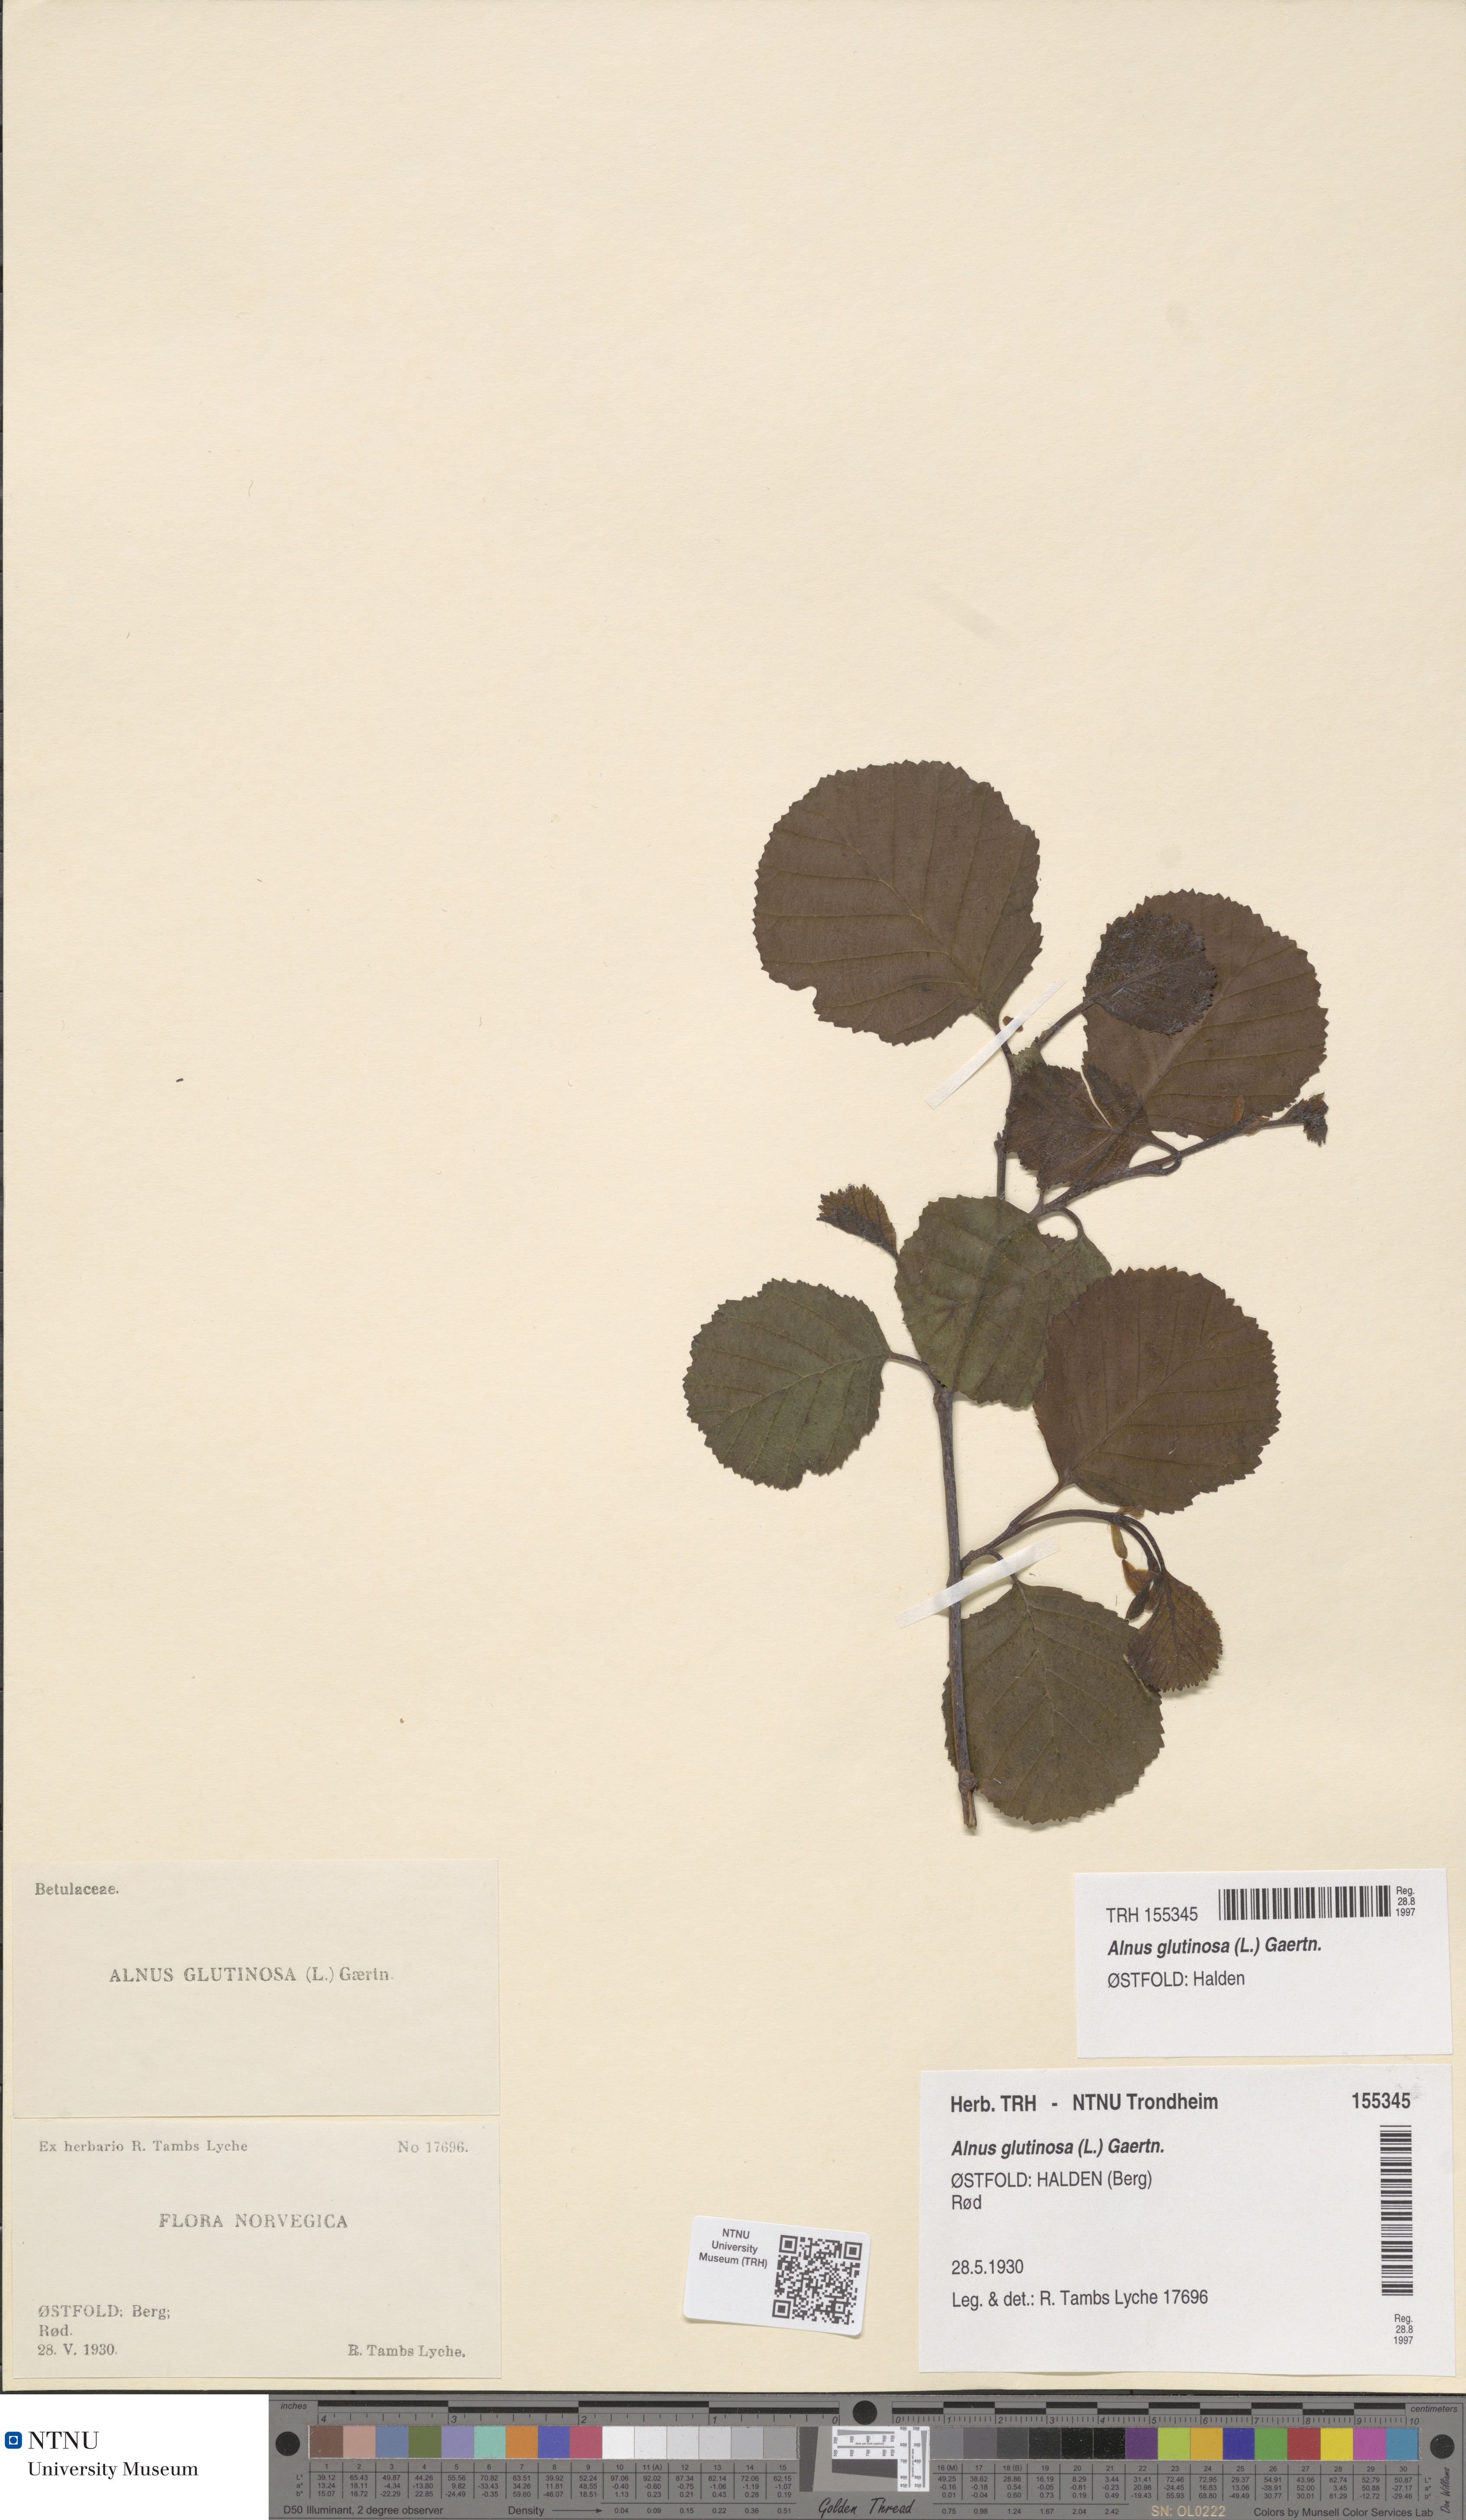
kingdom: Plantae
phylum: Tracheophyta
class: Magnoliopsida
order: Fagales
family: Betulaceae
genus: Alnus
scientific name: Alnus glutinosa
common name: Black alder
